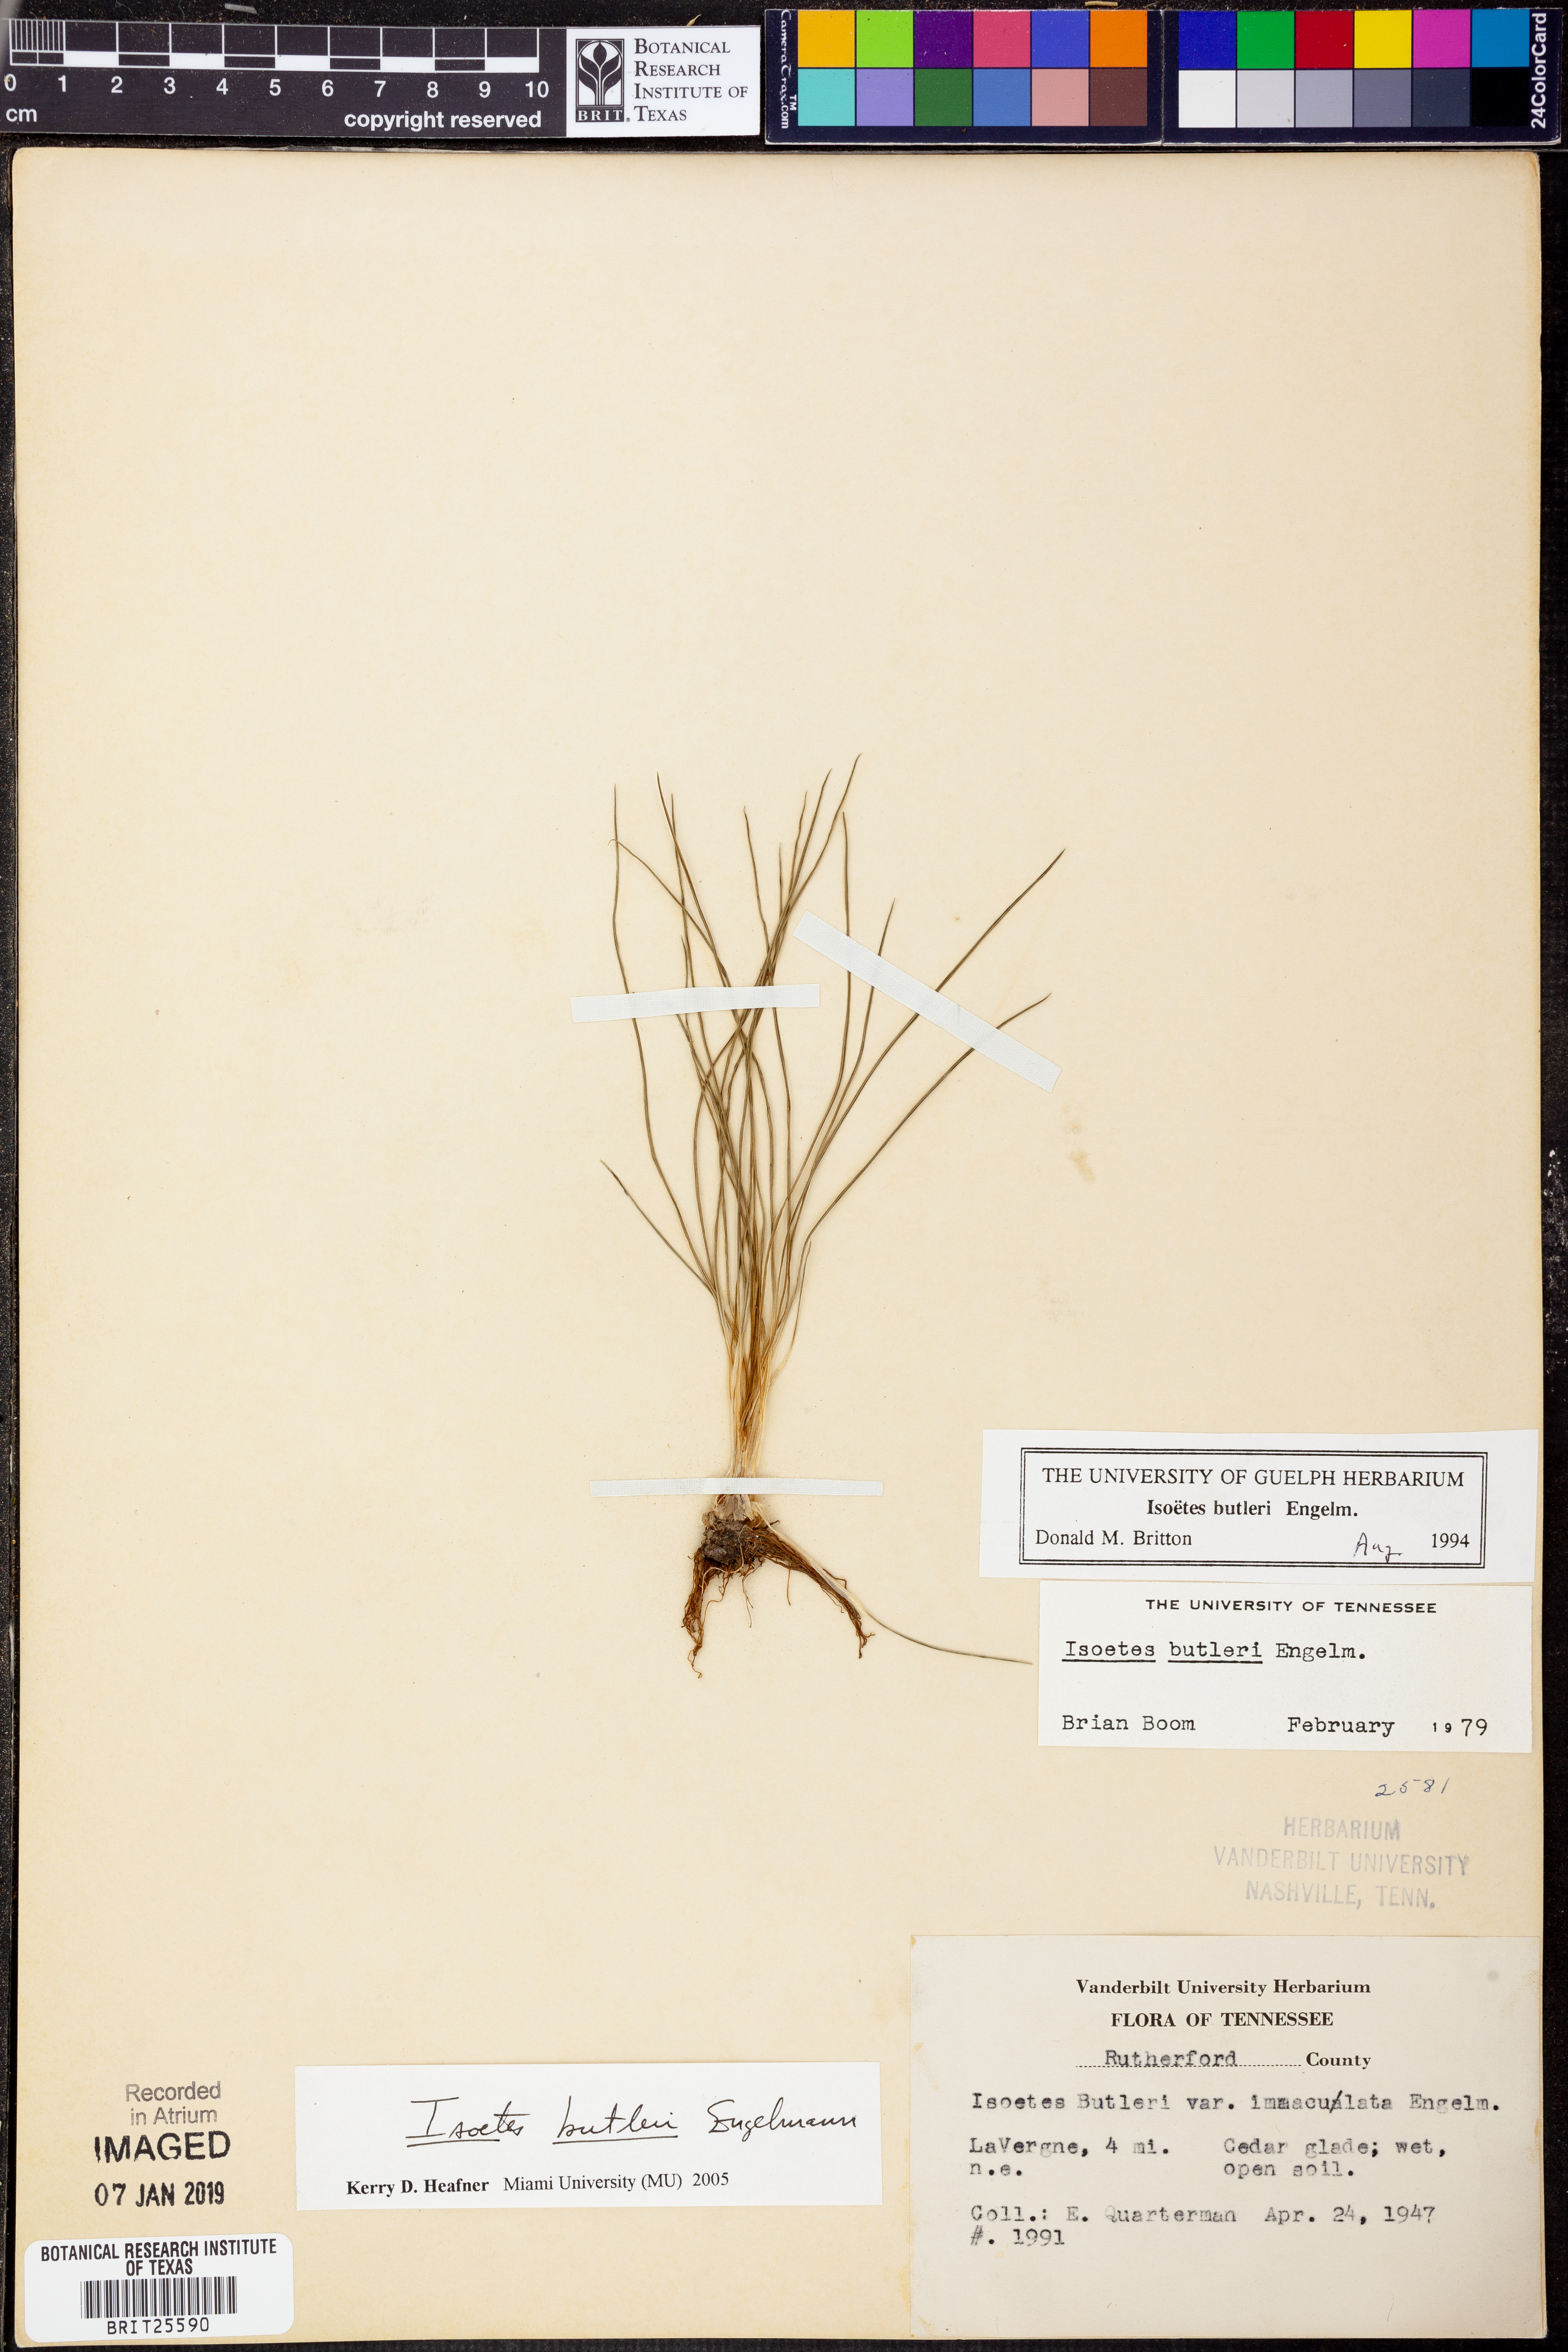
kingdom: Plantae
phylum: Tracheophyta
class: Lycopodiopsida
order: Isoetales
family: Isoetaceae
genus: Isoetes
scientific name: Isoetes butleri
